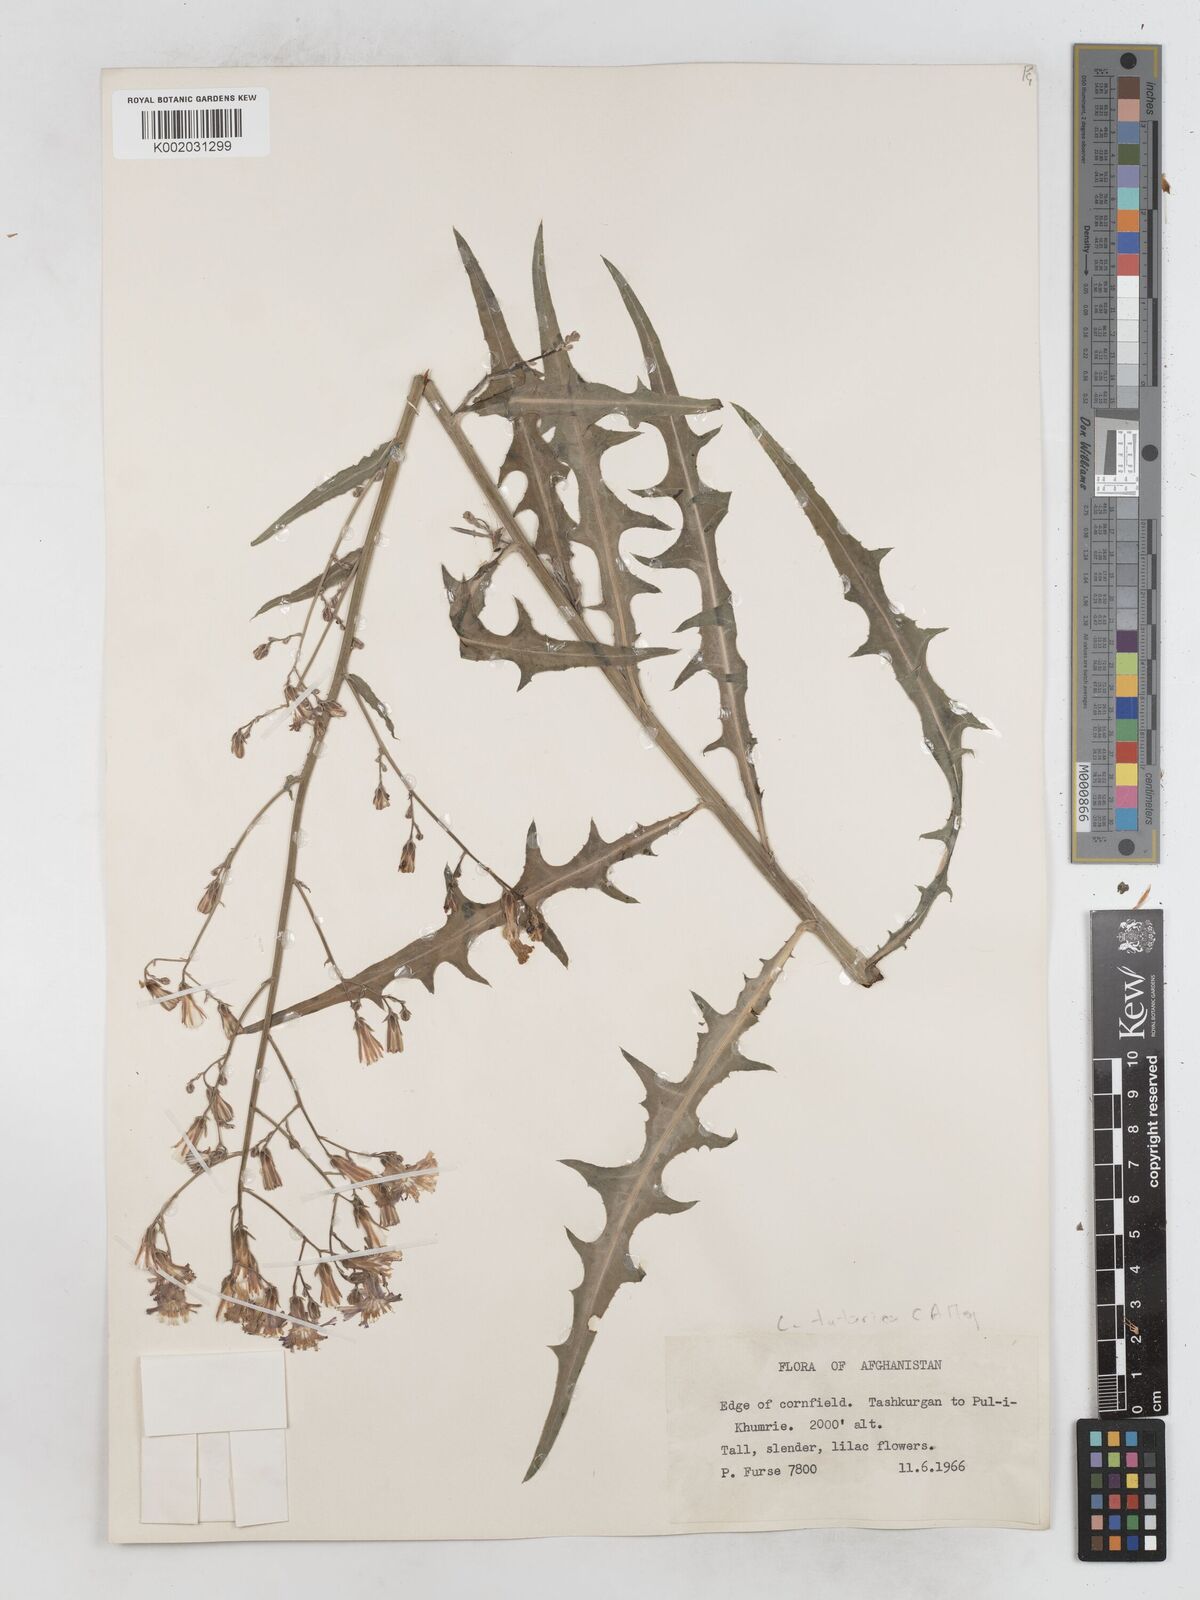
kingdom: Plantae
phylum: Tracheophyta
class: Magnoliopsida
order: Asterales
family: Asteraceae
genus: Lactuca
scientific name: Lactuca tatarica
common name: Blue lettuce
